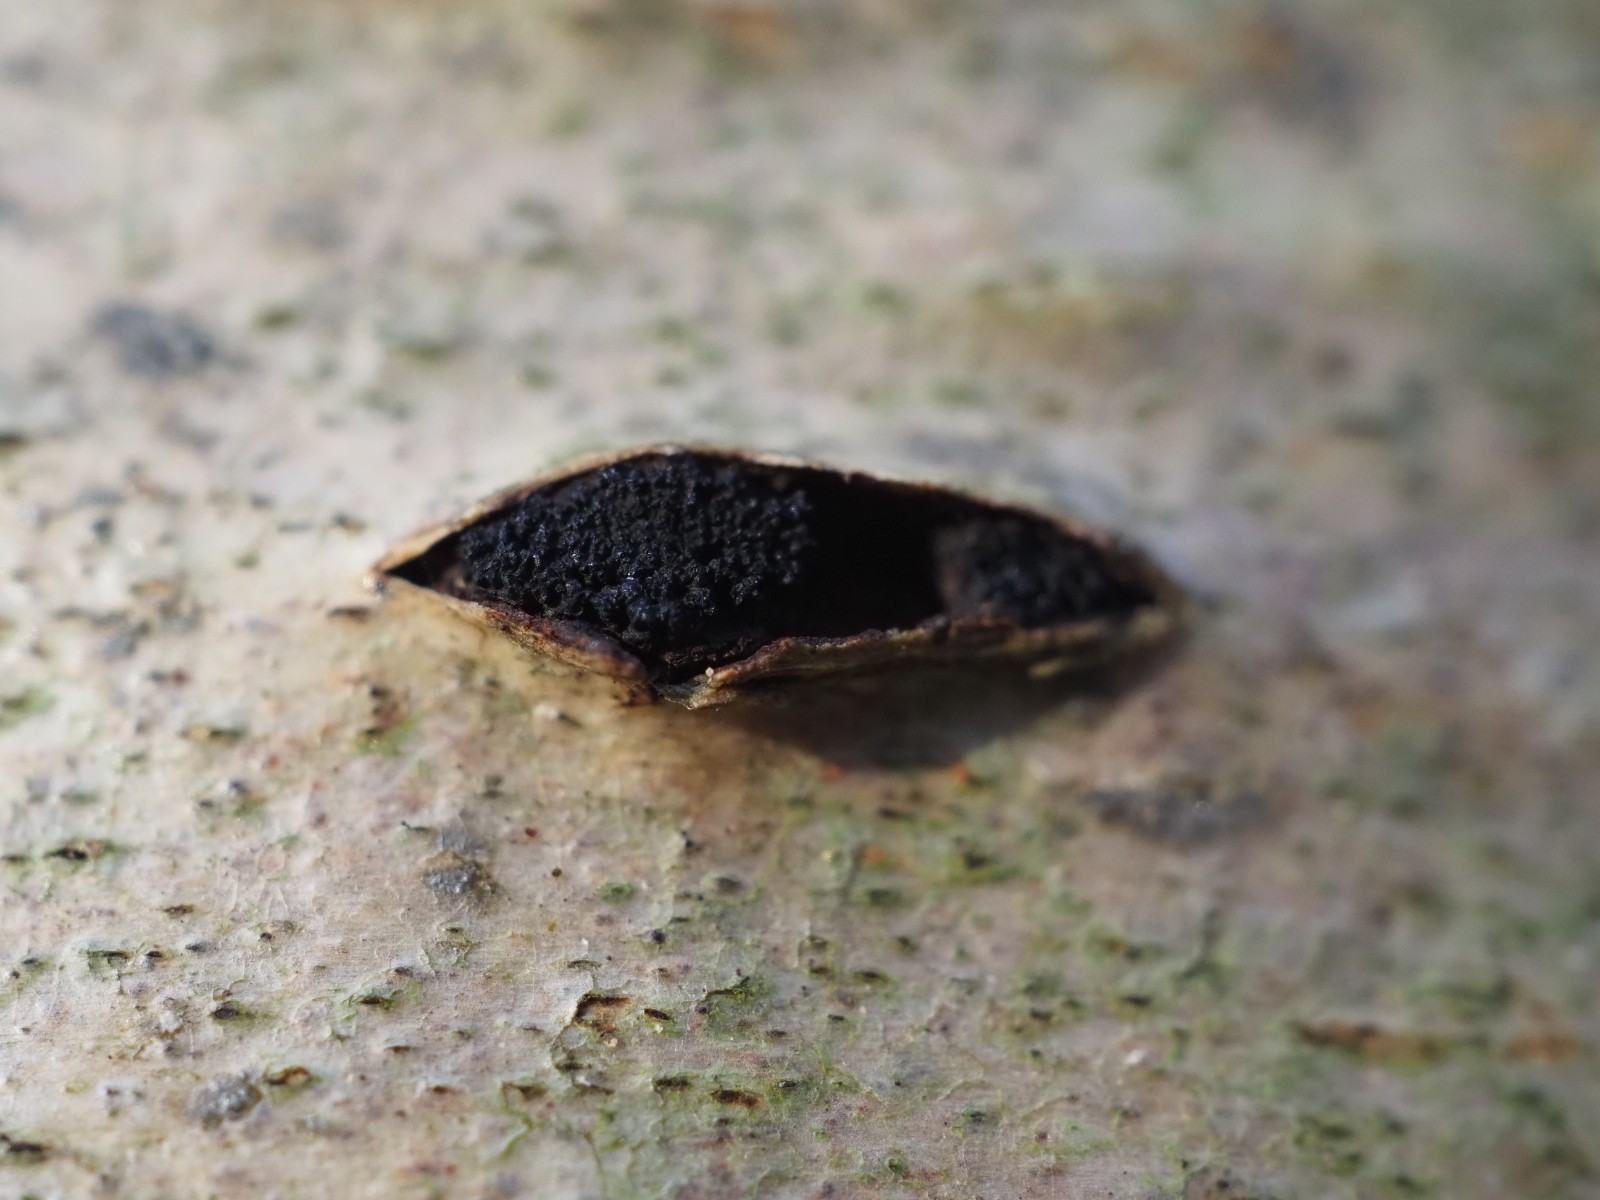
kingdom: Fungi
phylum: Ascomycota
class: Sordariomycetes
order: Xylariales
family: Diatrypaceae
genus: Eutypella
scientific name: Eutypella sorbi
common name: rønne-kulskorpe
